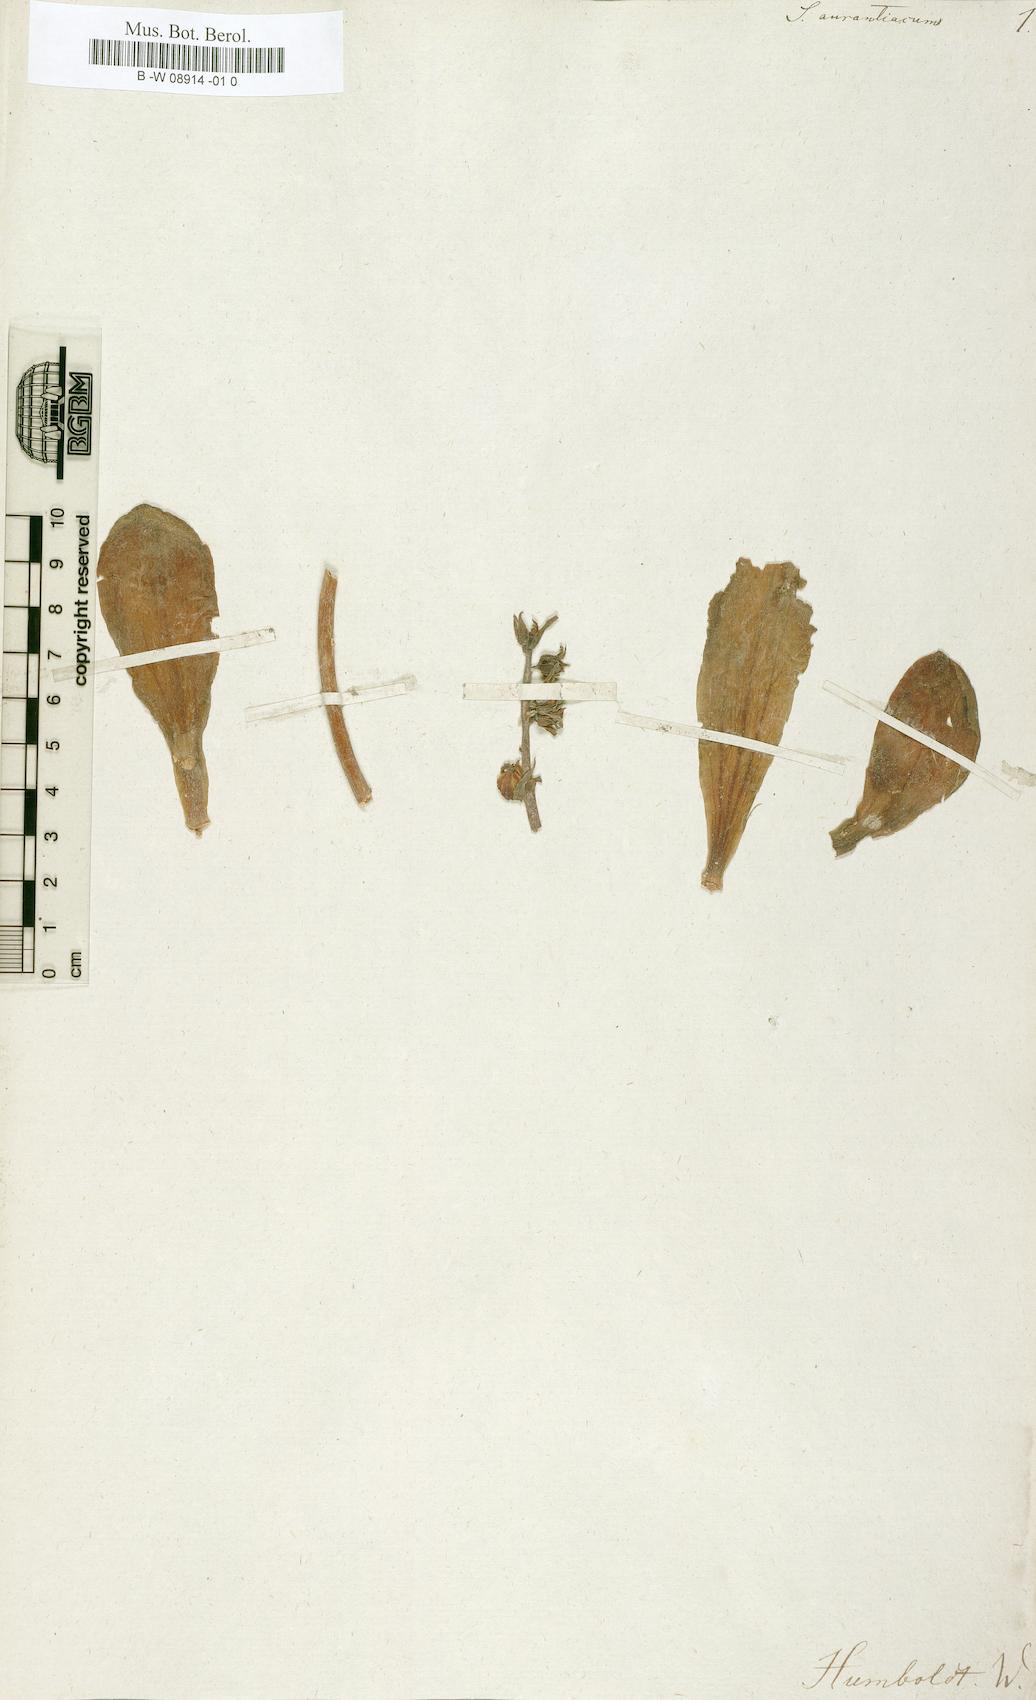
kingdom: Plantae
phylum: Tracheophyta
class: Magnoliopsida
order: Saxifragales
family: Crassulaceae
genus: Sedum
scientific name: Sedum
